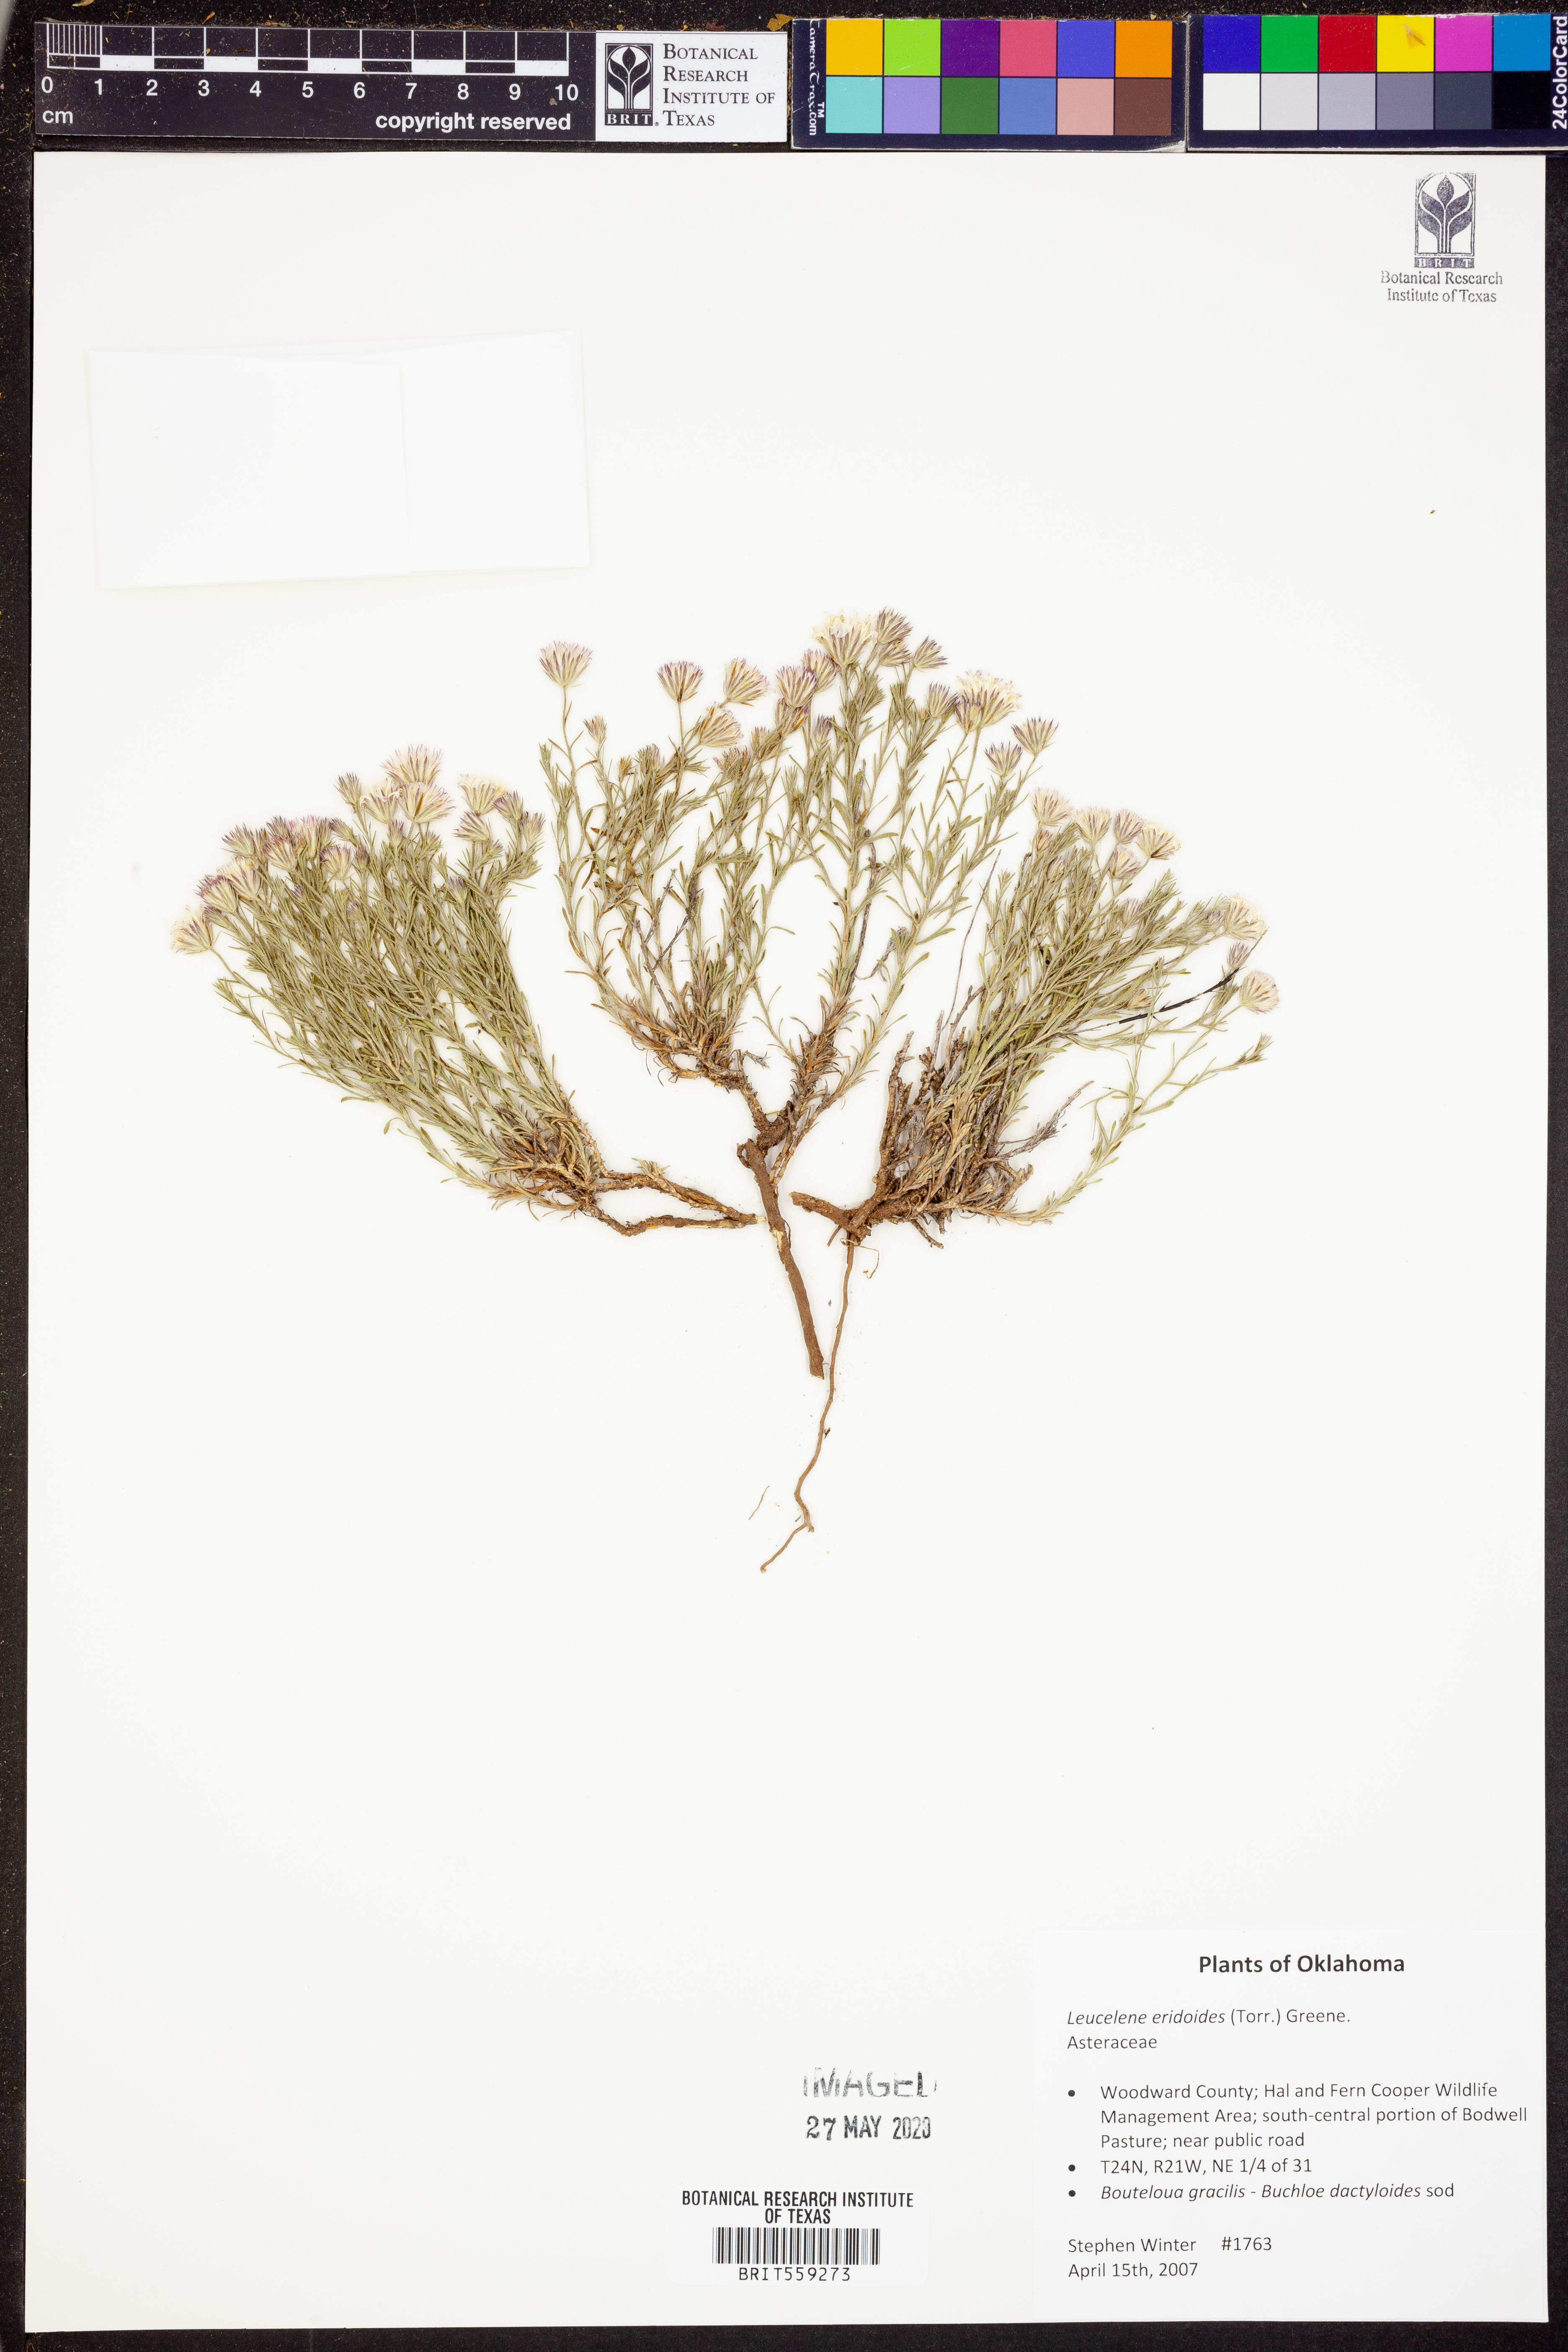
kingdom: Plantae
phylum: Tracheophyta
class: Magnoliopsida
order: Asterales
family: Asteraceae
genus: Chaetopappa
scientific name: Chaetopappa ericoides
